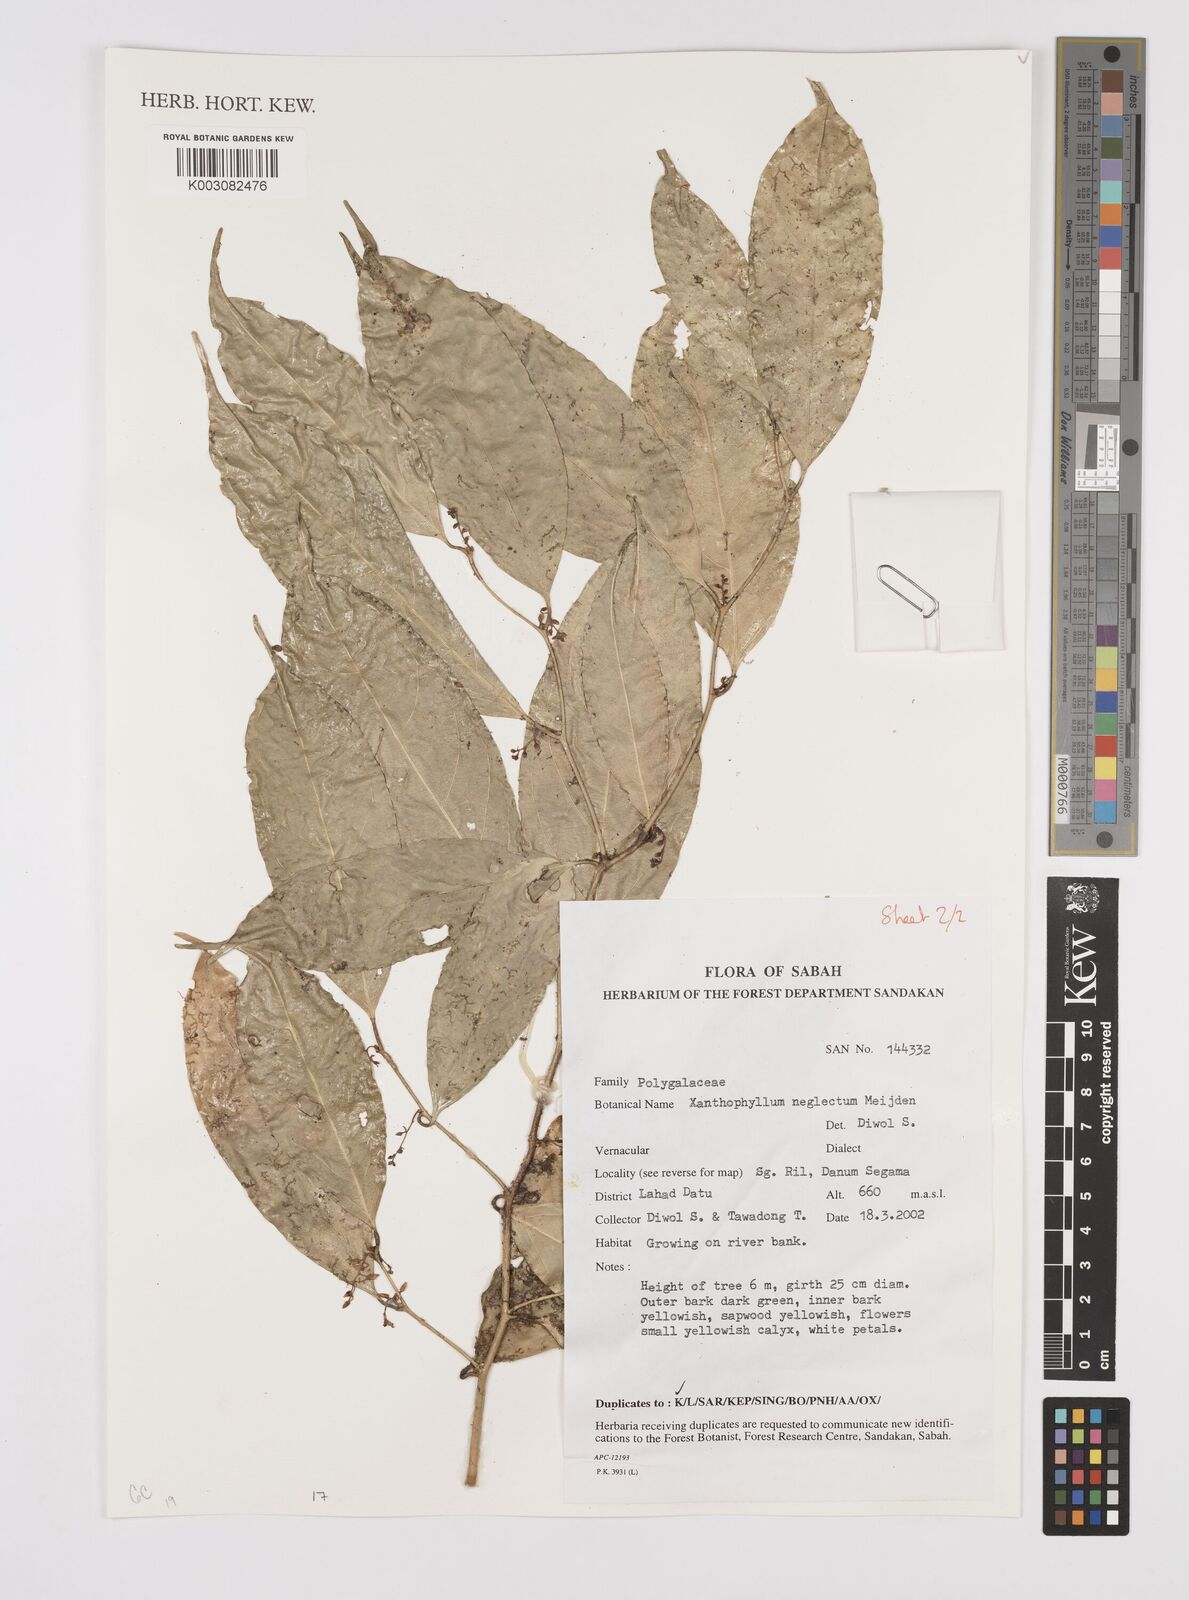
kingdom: Plantae
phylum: Tracheophyta
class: Magnoliopsida
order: Fabales
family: Polygalaceae
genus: Xanthophyllum
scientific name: Xanthophyllum neglectum
